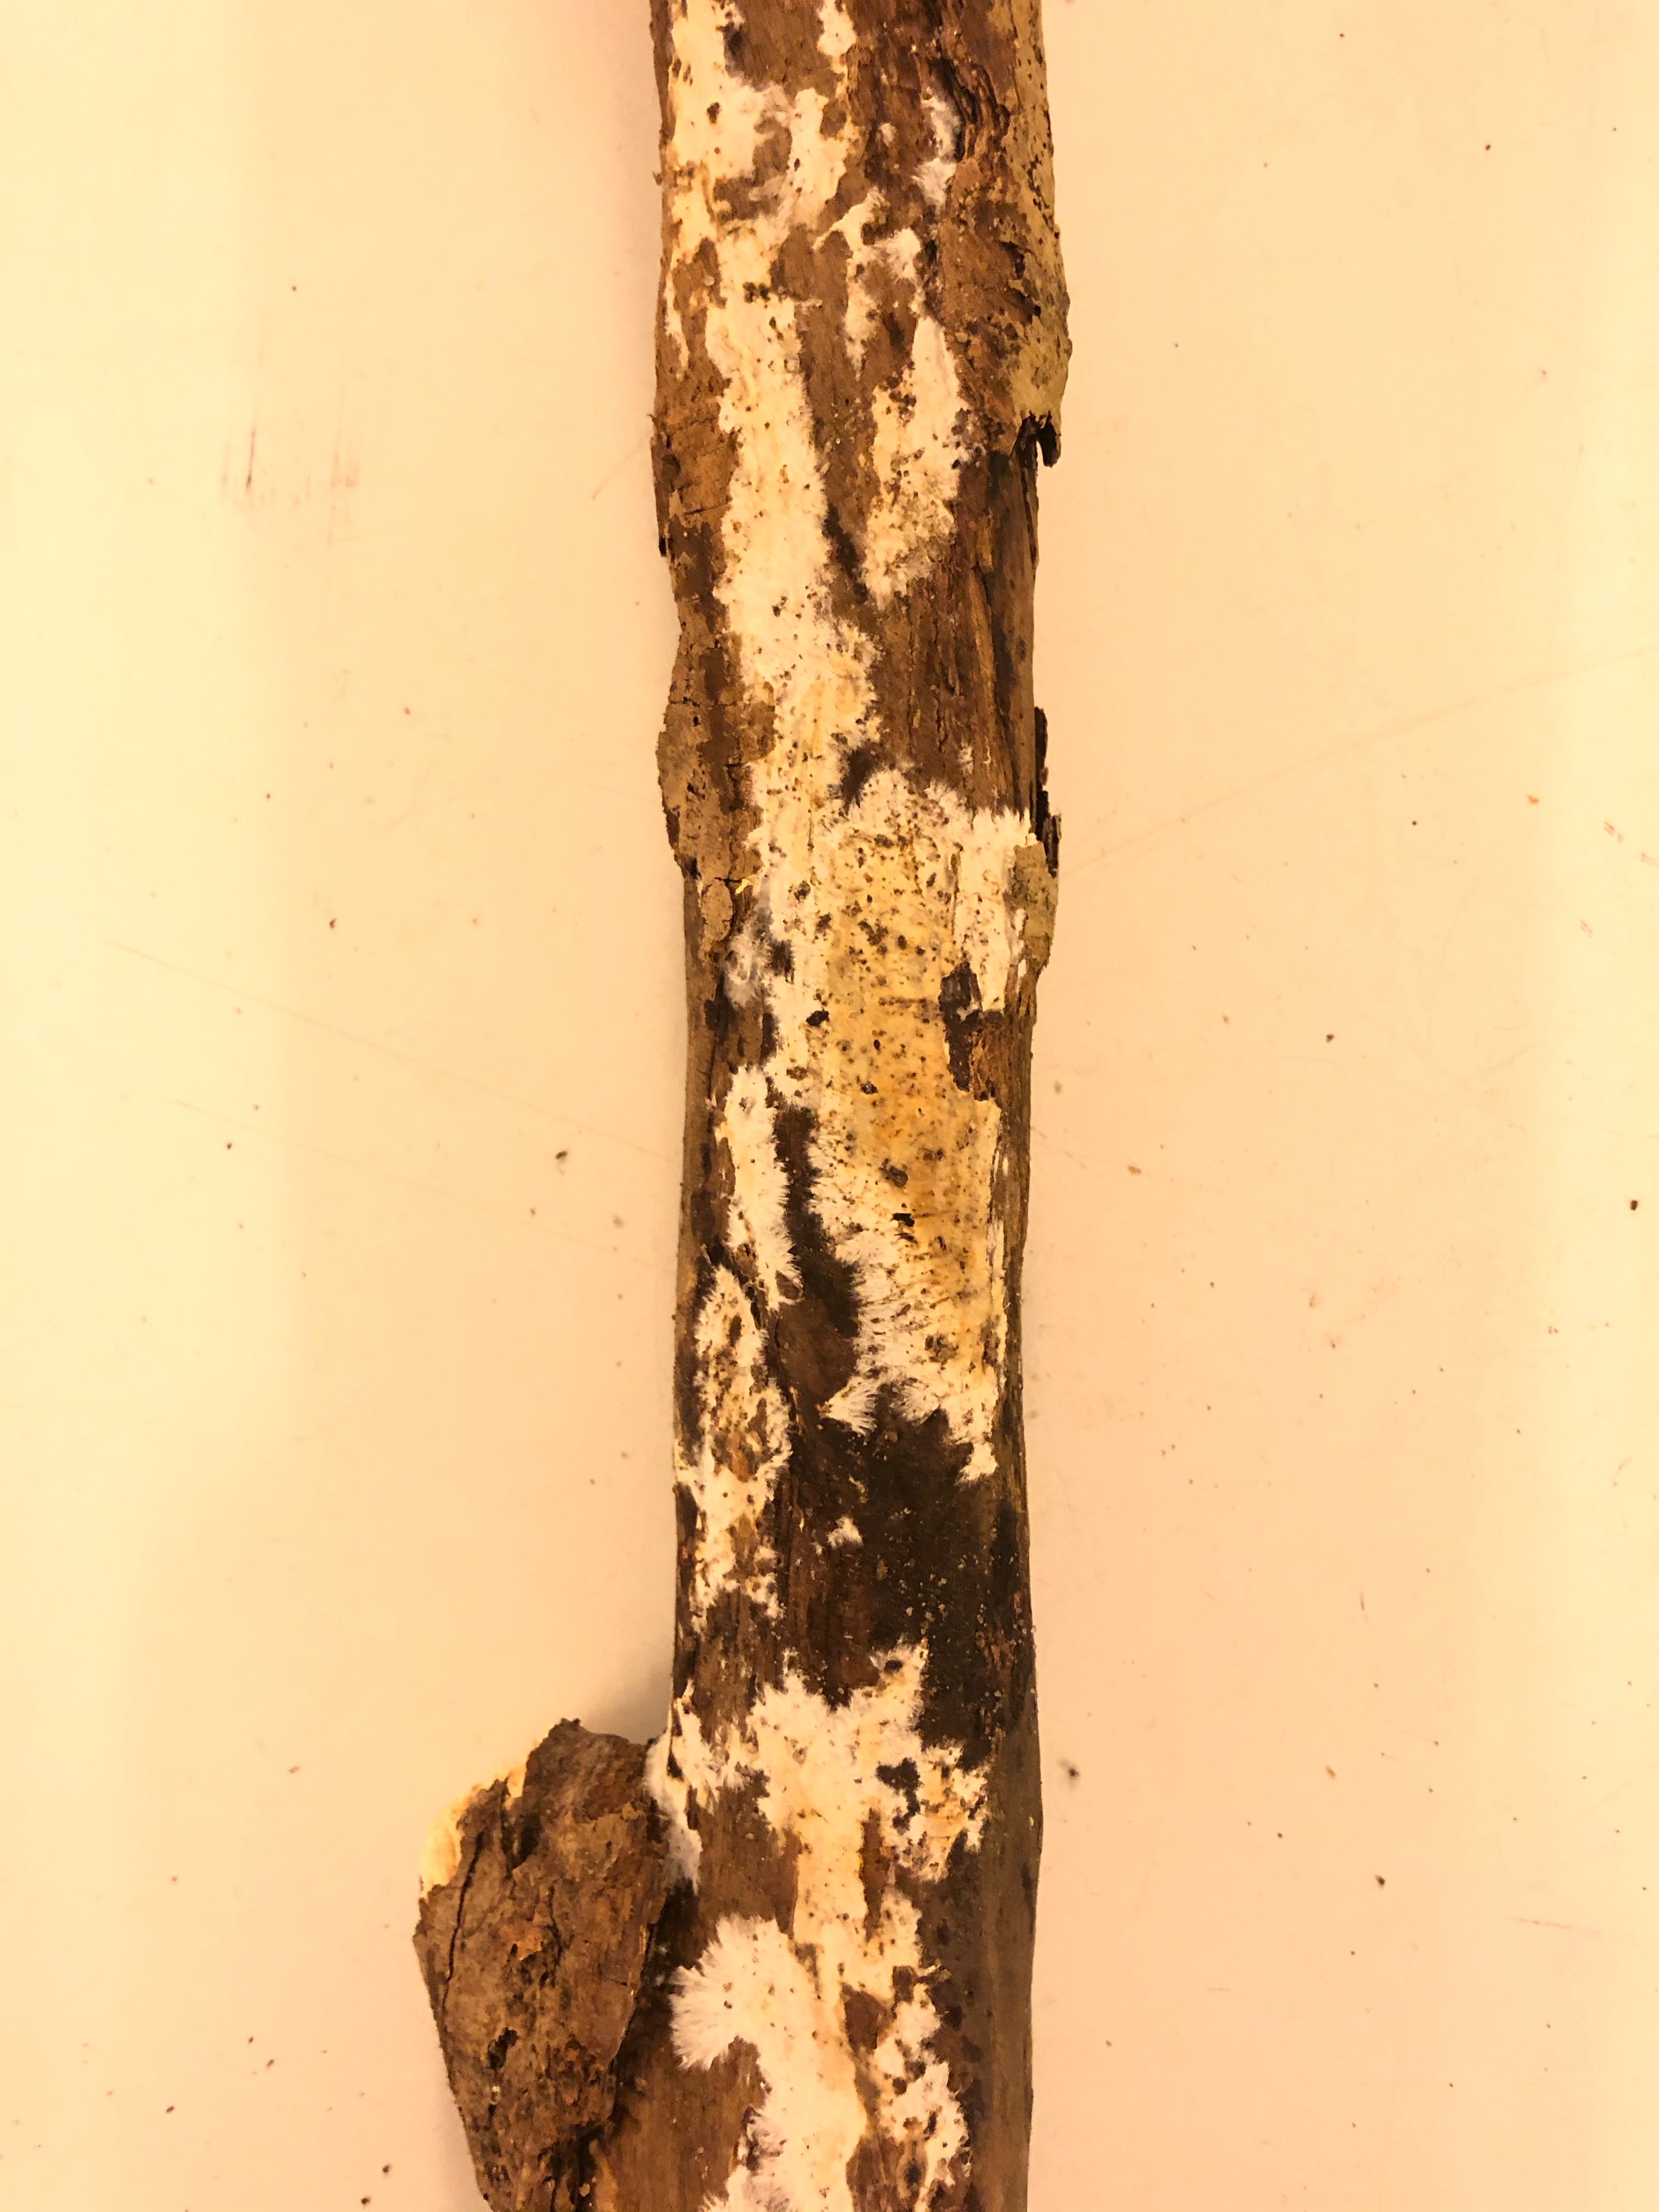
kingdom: Fungi
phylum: Basidiomycota
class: Agaricomycetes
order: Polyporales
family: Phanerochaetaceae
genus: Phanerochaete
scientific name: Phanerochaete velutina
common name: dunet randtråd
